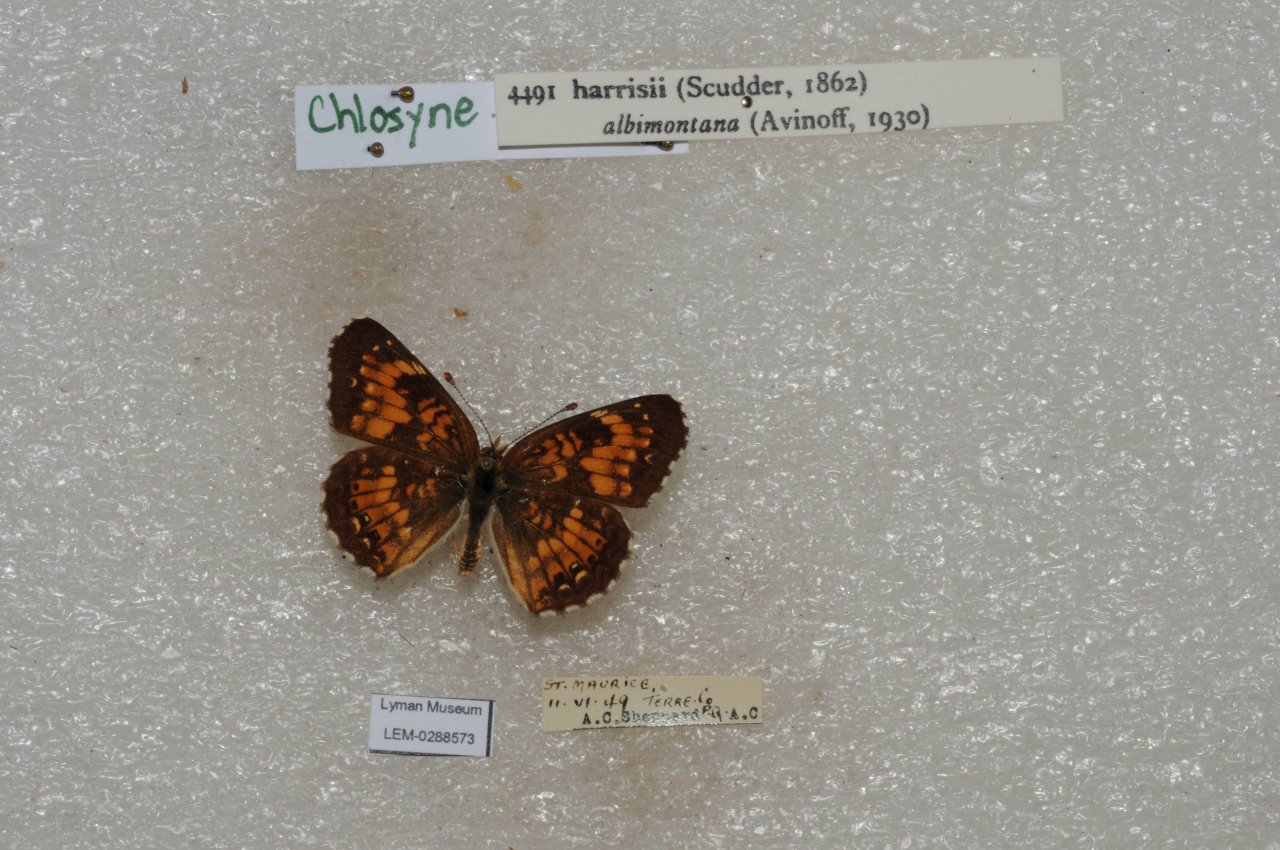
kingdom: Animalia
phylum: Arthropoda
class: Insecta
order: Lepidoptera
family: Nymphalidae
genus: Chlosyne
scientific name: Chlosyne harrisii
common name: Harris's Checkerspot
